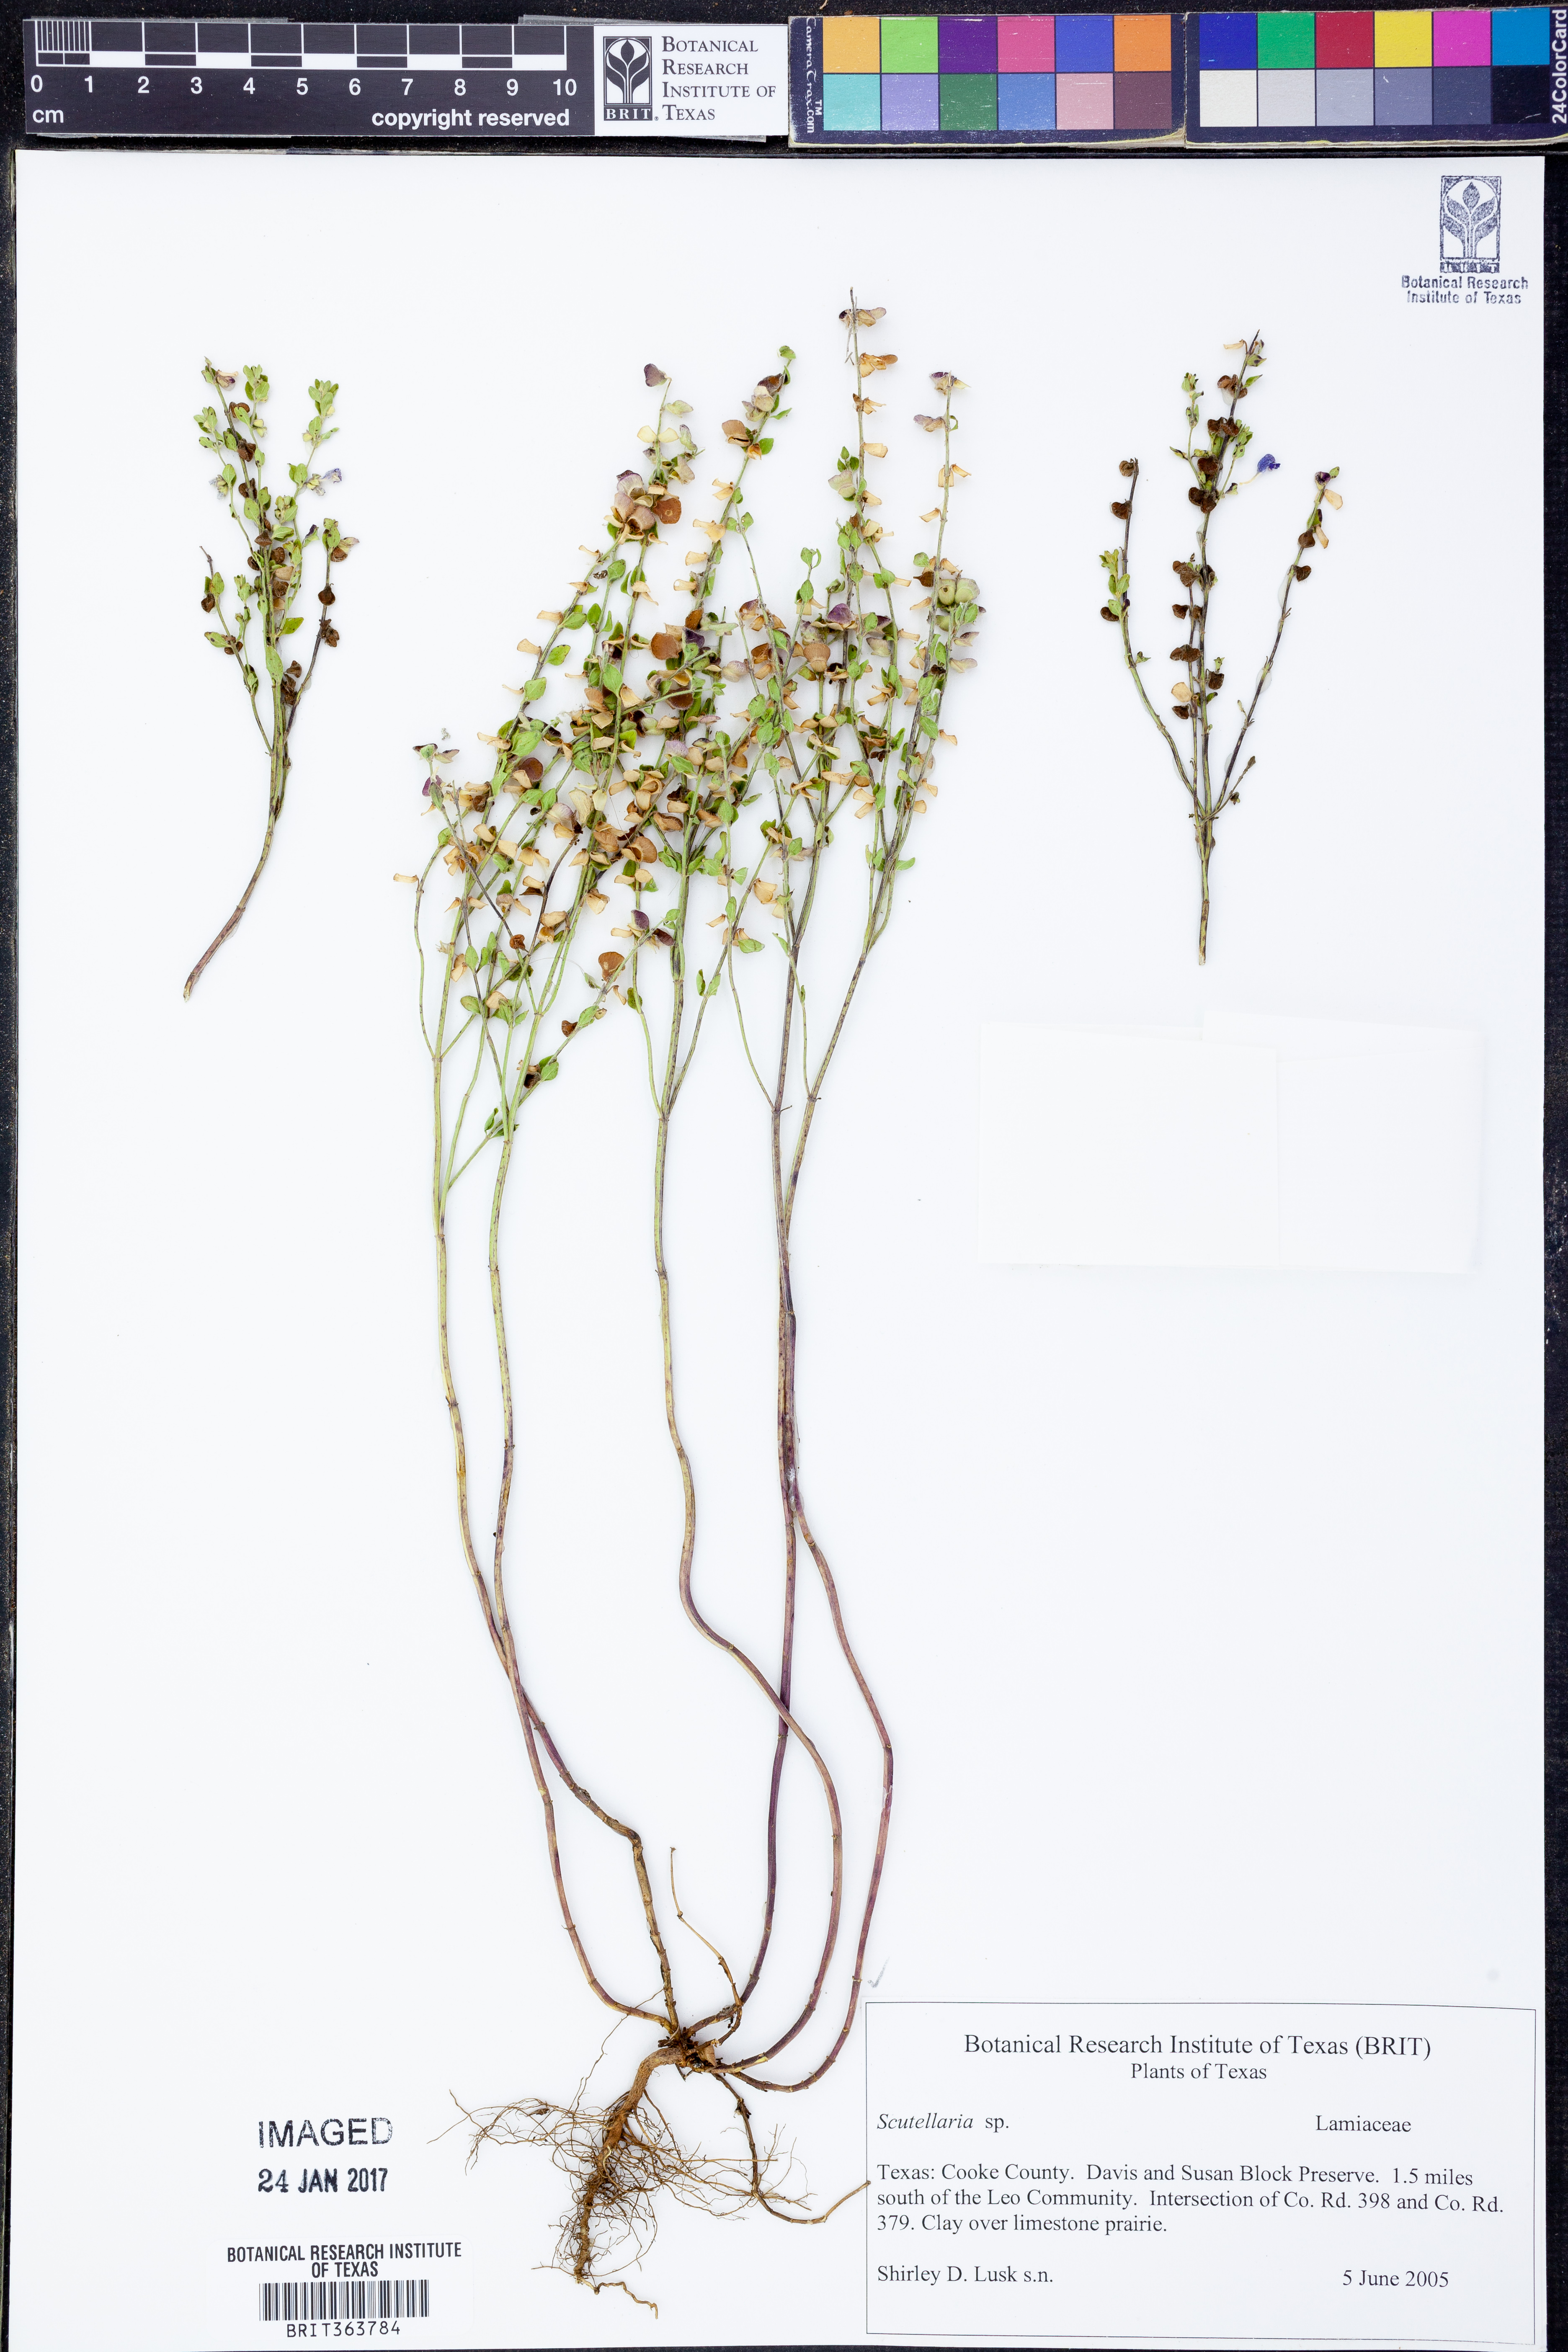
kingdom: Plantae
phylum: Tracheophyta
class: Magnoliopsida
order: Lamiales
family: Lamiaceae
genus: Scutellaria
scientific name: Scutellaria
